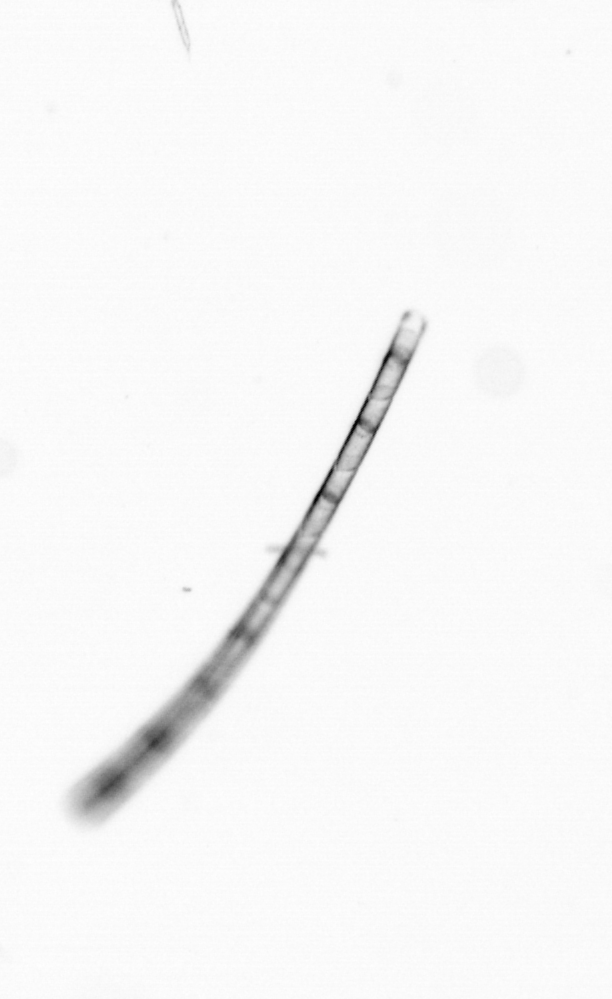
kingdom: Chromista
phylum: Ochrophyta
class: Bacillariophyceae
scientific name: Bacillariophyceae
